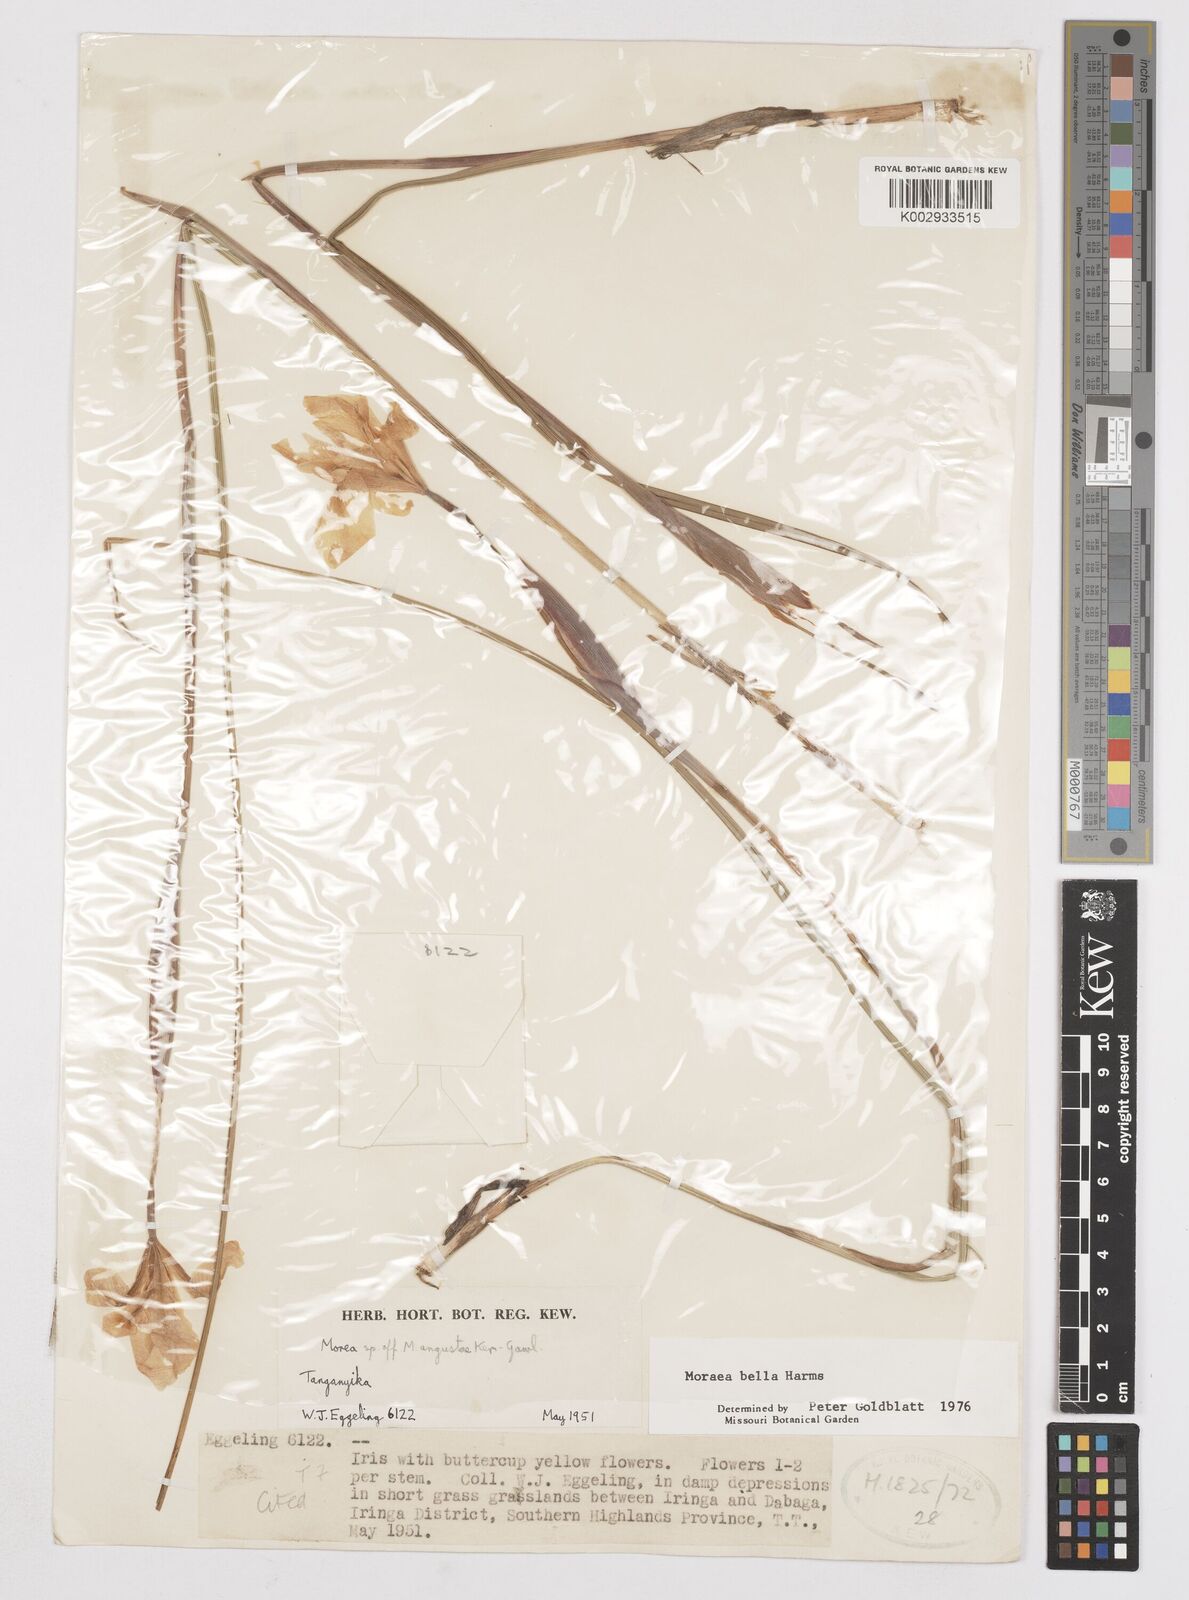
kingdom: Plantae
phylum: Tracheophyta
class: Liliopsida
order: Asparagales
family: Iridaceae
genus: Moraea
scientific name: Moraea bella
